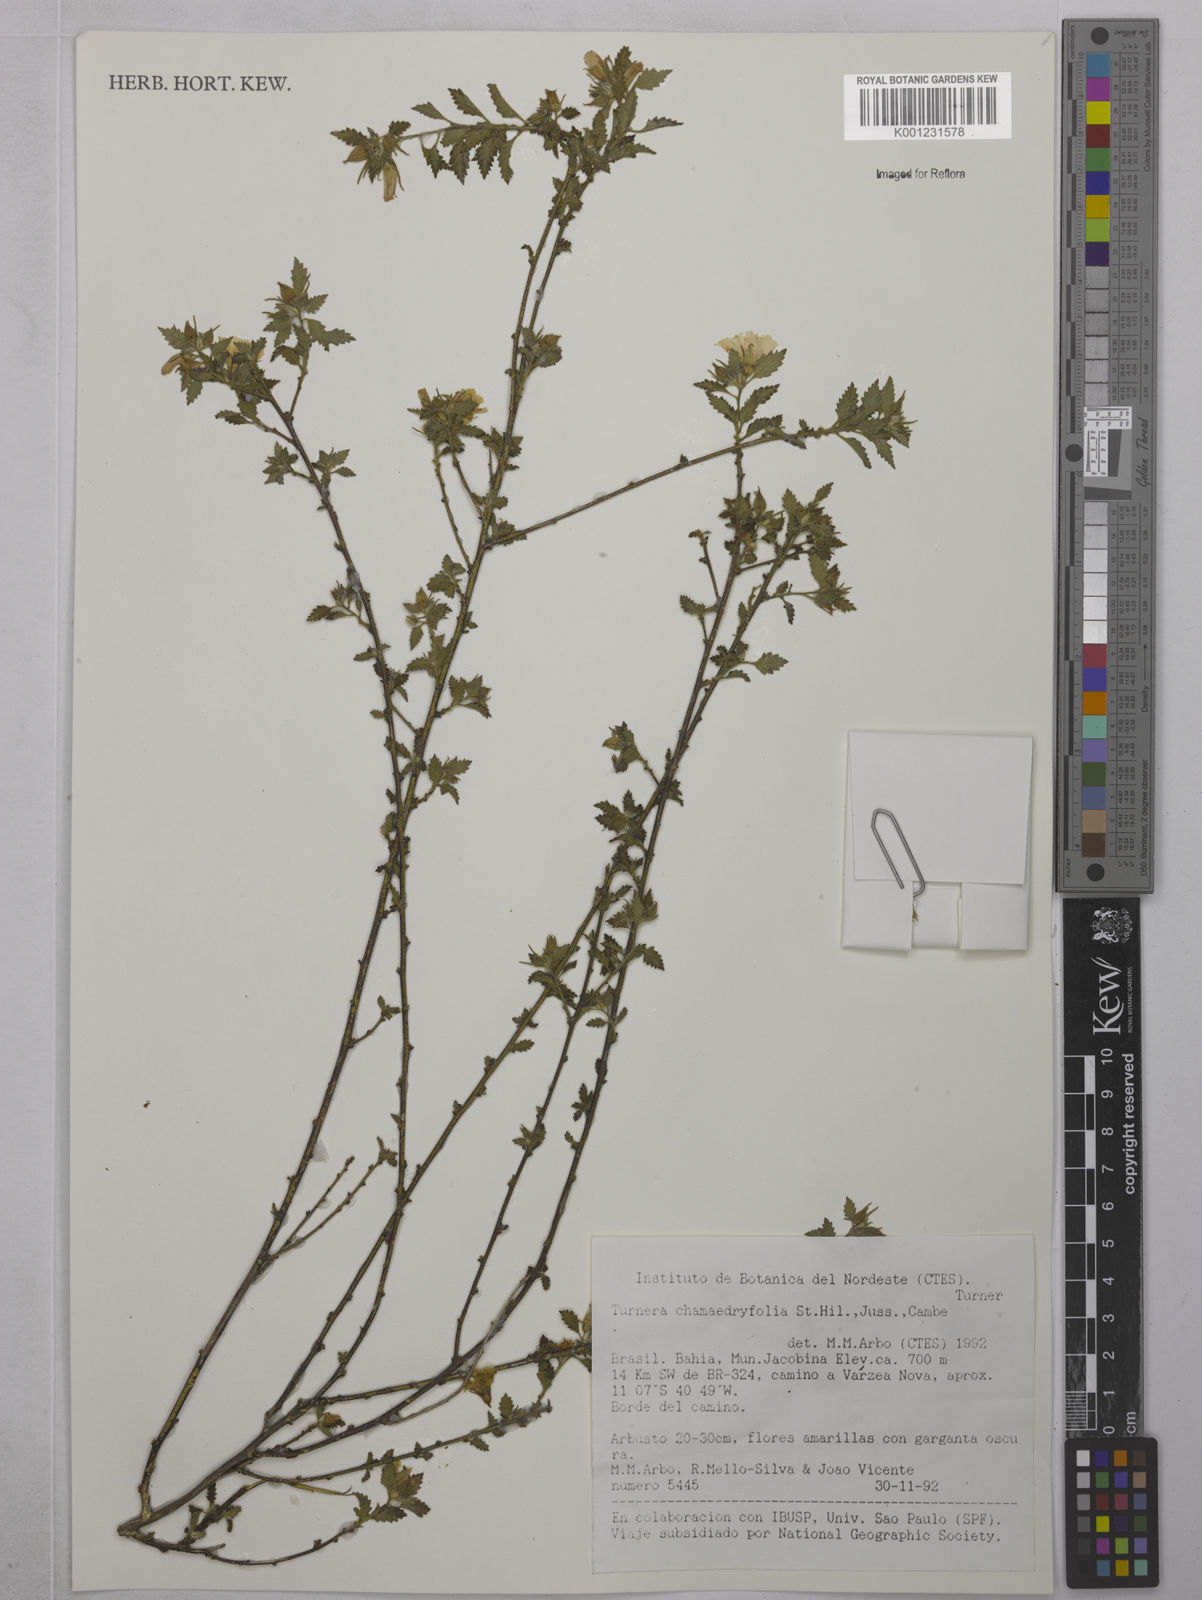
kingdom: Plantae
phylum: Tracheophyta
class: Magnoliopsida
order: Malpighiales
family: Turneraceae
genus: Turnera
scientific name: Turnera chamaedrifolia
